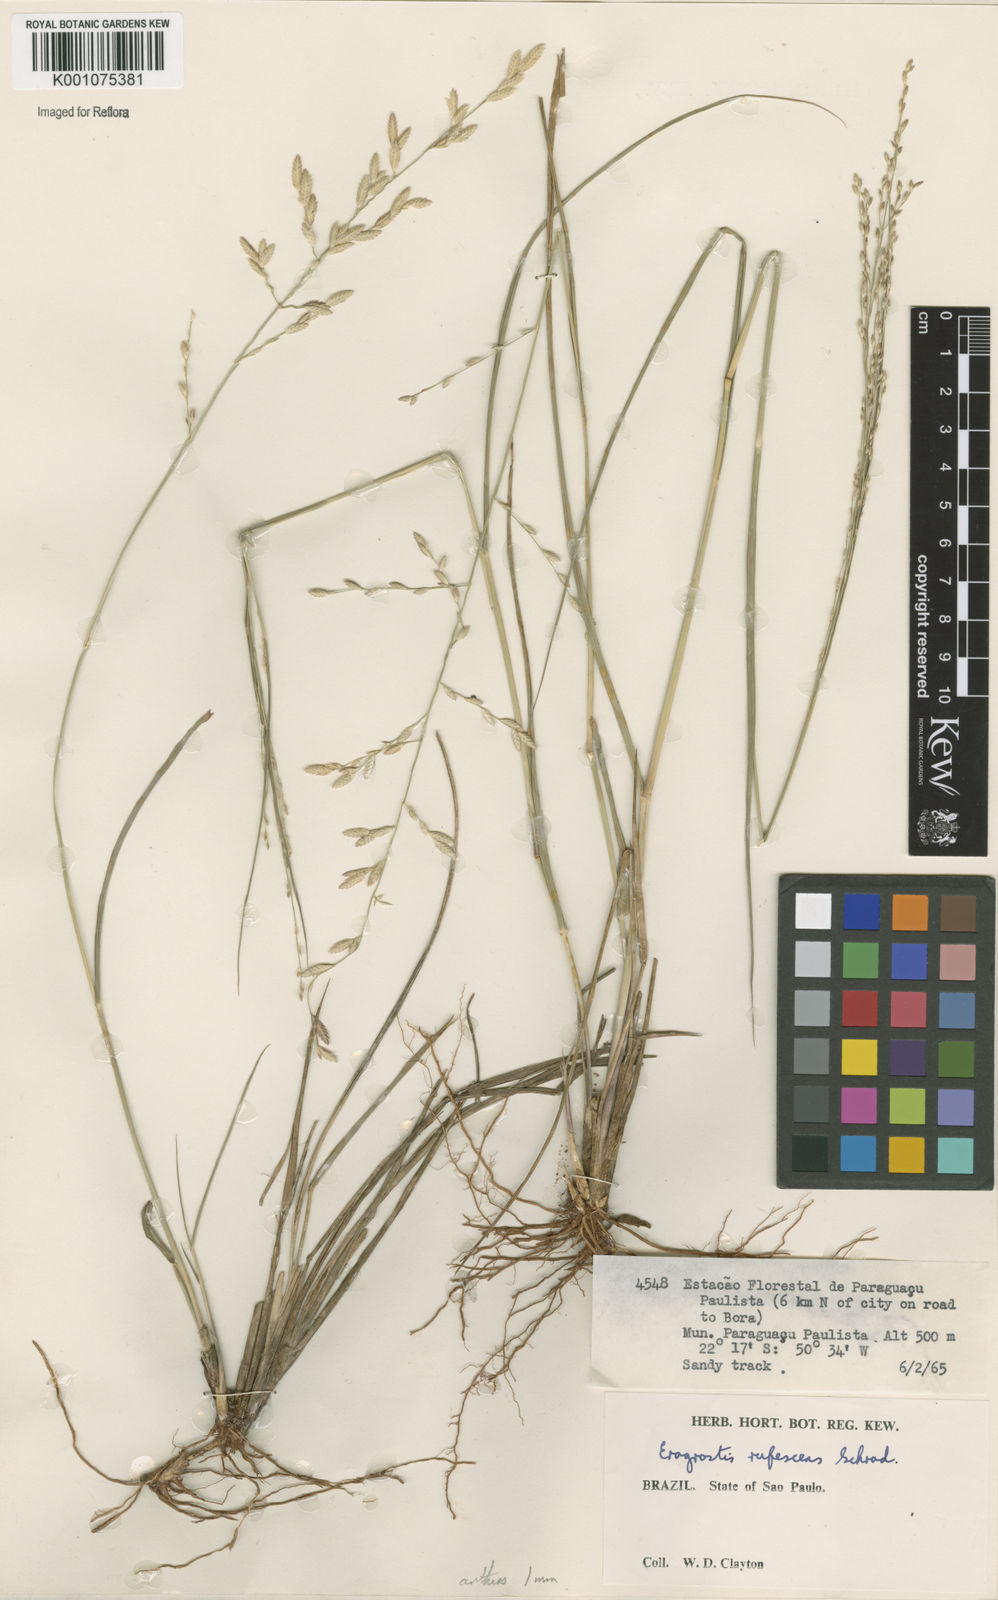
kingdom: Plantae
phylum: Tracheophyta
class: Liliopsida
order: Poales
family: Poaceae
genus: Eragrostis
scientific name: Eragrostis solida
